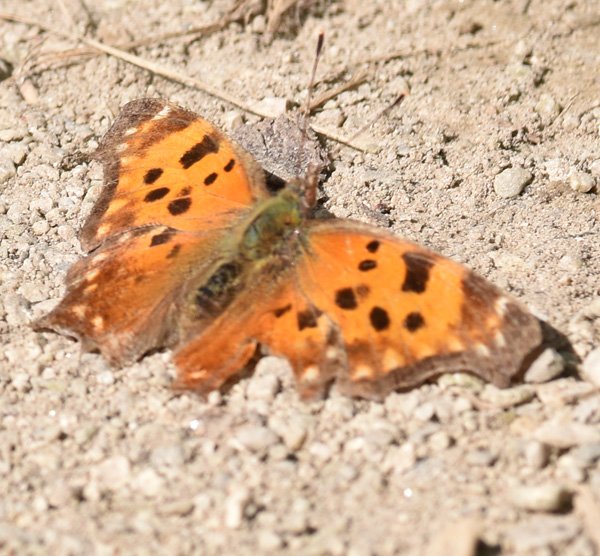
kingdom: Animalia
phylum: Arthropoda
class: Insecta
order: Lepidoptera
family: Nymphalidae
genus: Polygonia
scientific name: Polygonia comma
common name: Eastern Comma
